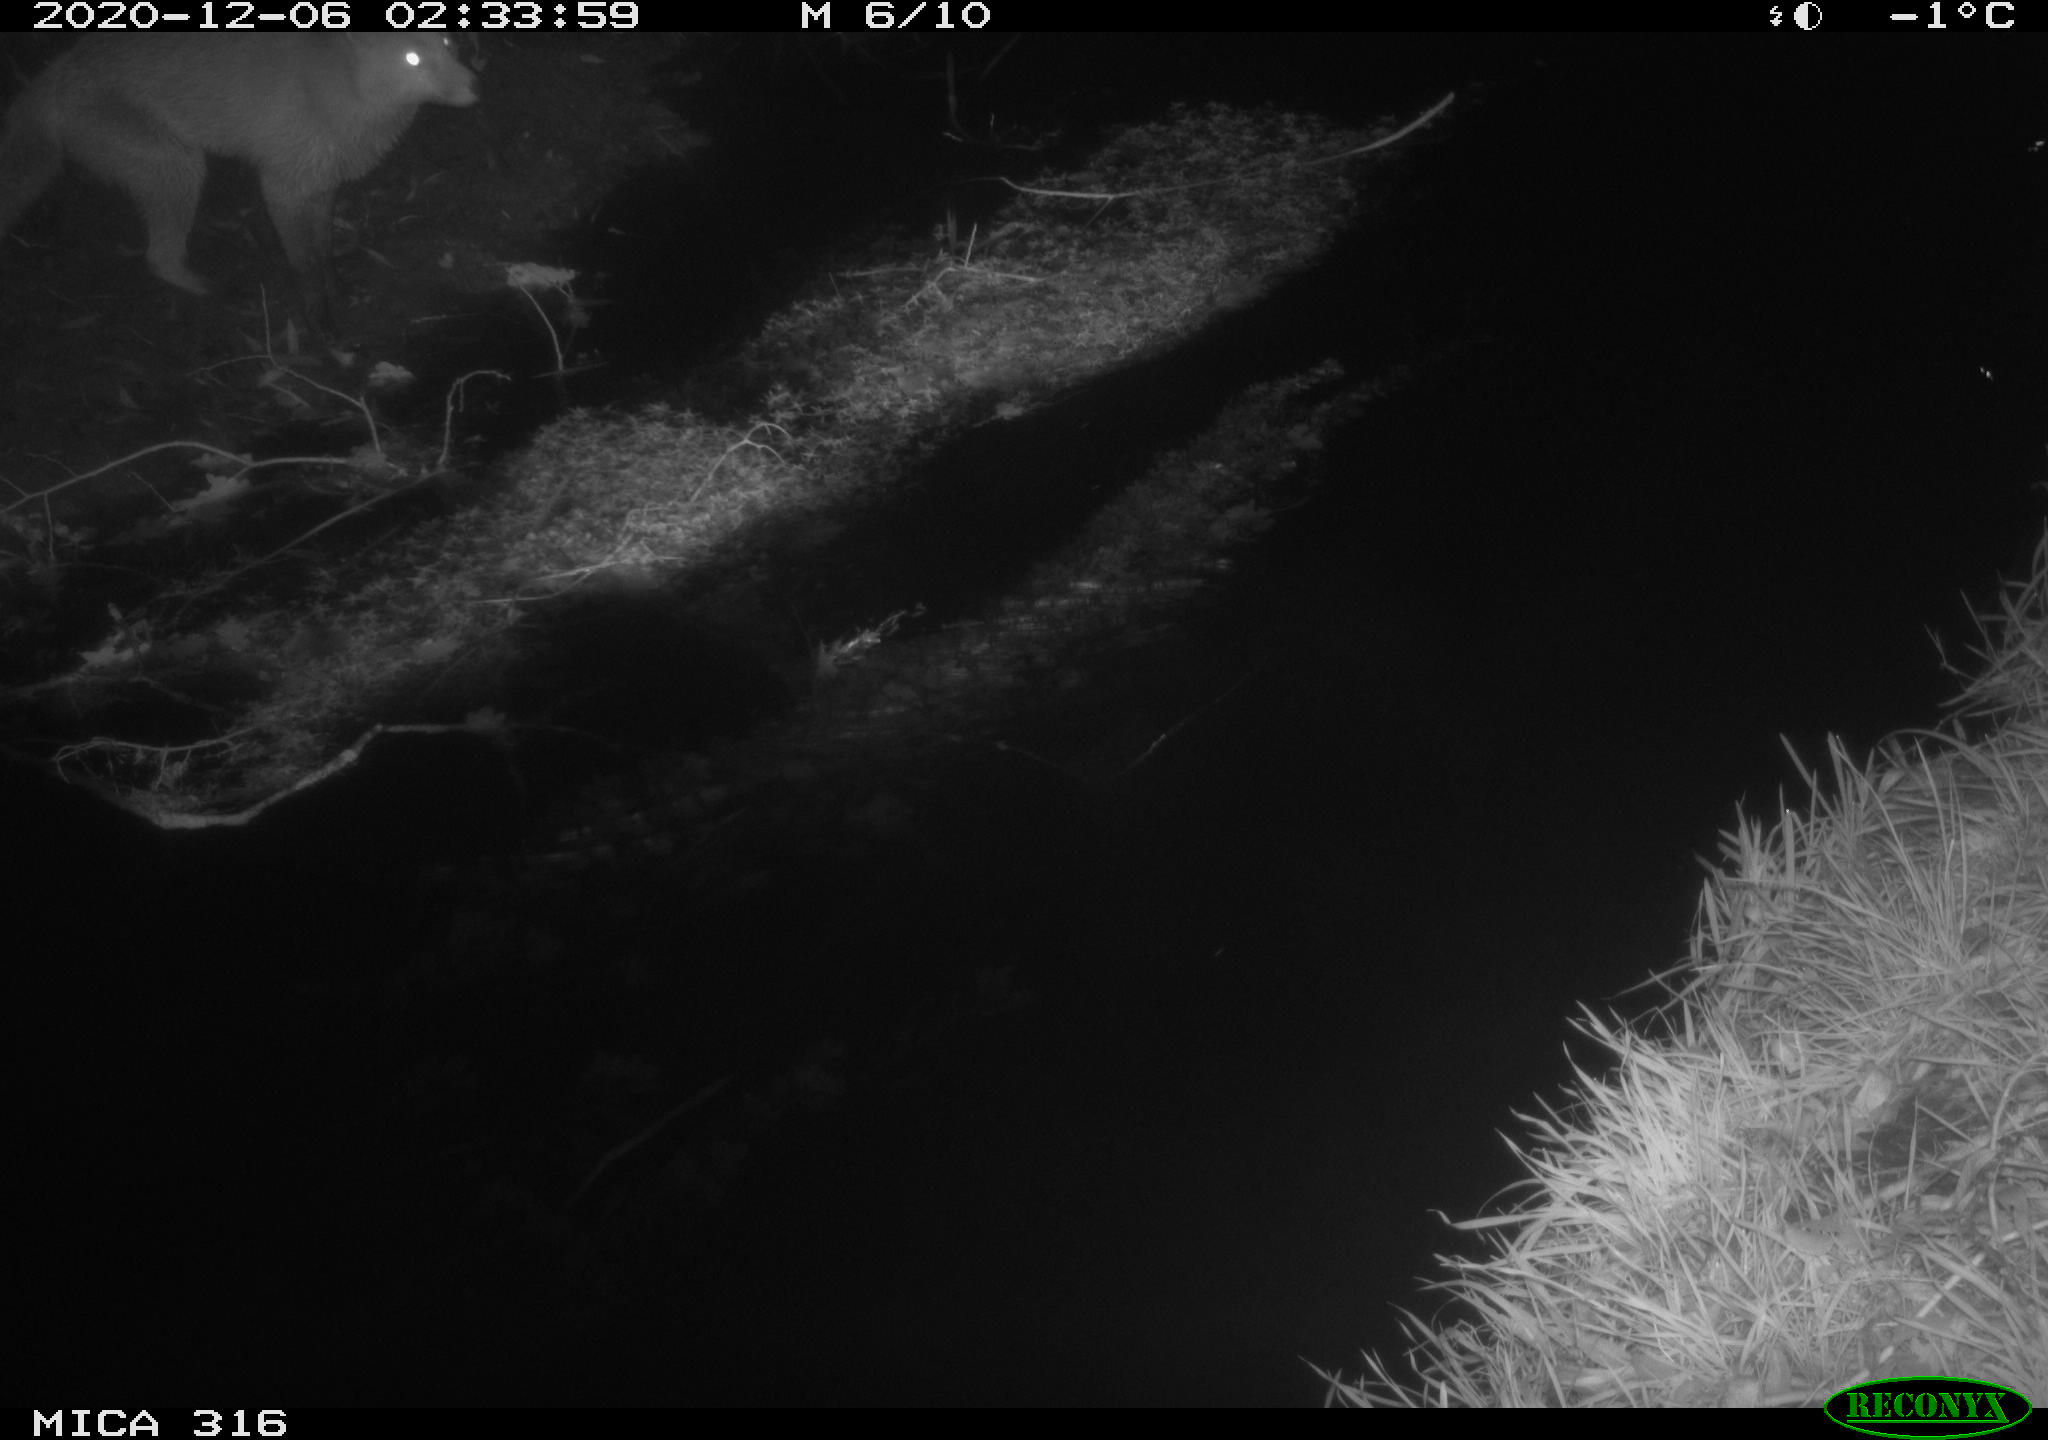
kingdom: Animalia
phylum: Chordata
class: Mammalia
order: Carnivora
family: Canidae
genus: Vulpes
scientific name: Vulpes vulpes
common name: Red fox
